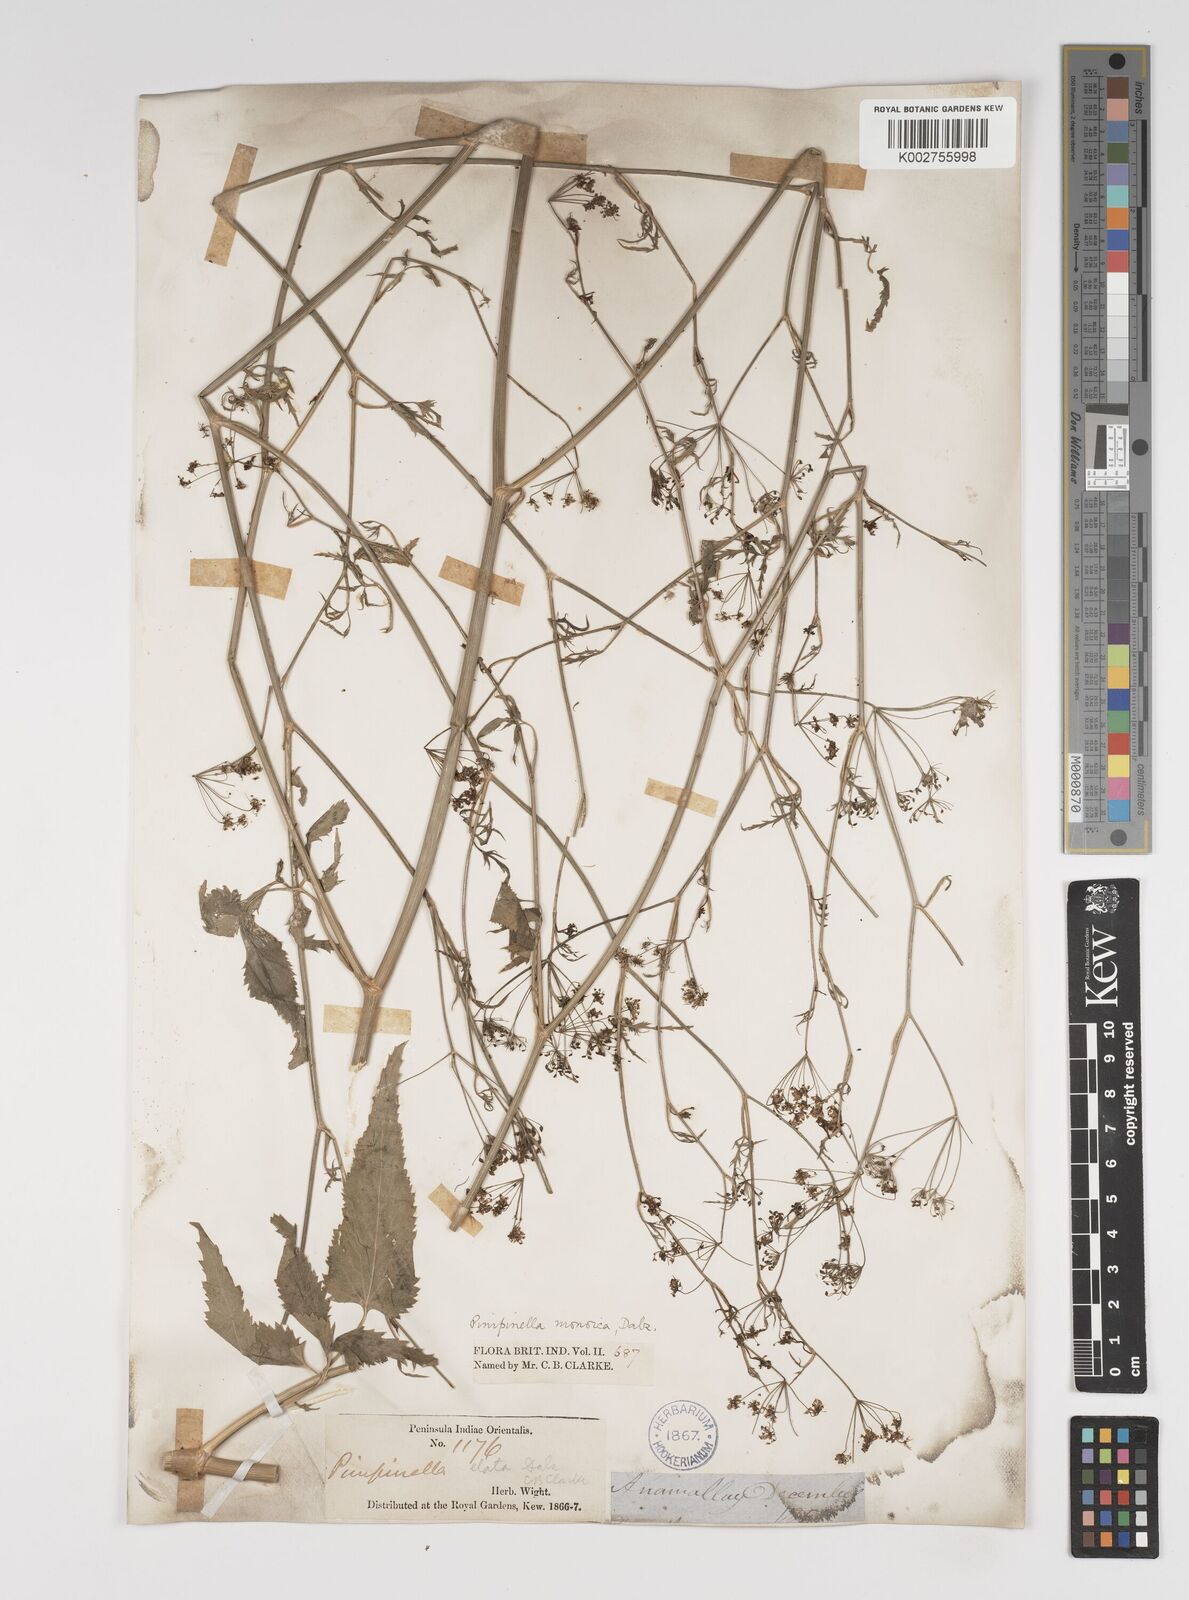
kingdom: Plantae
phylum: Tracheophyta
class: Magnoliopsida
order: Apiales
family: Apiaceae
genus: Pimpinella
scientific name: Pimpinella wallichiana
